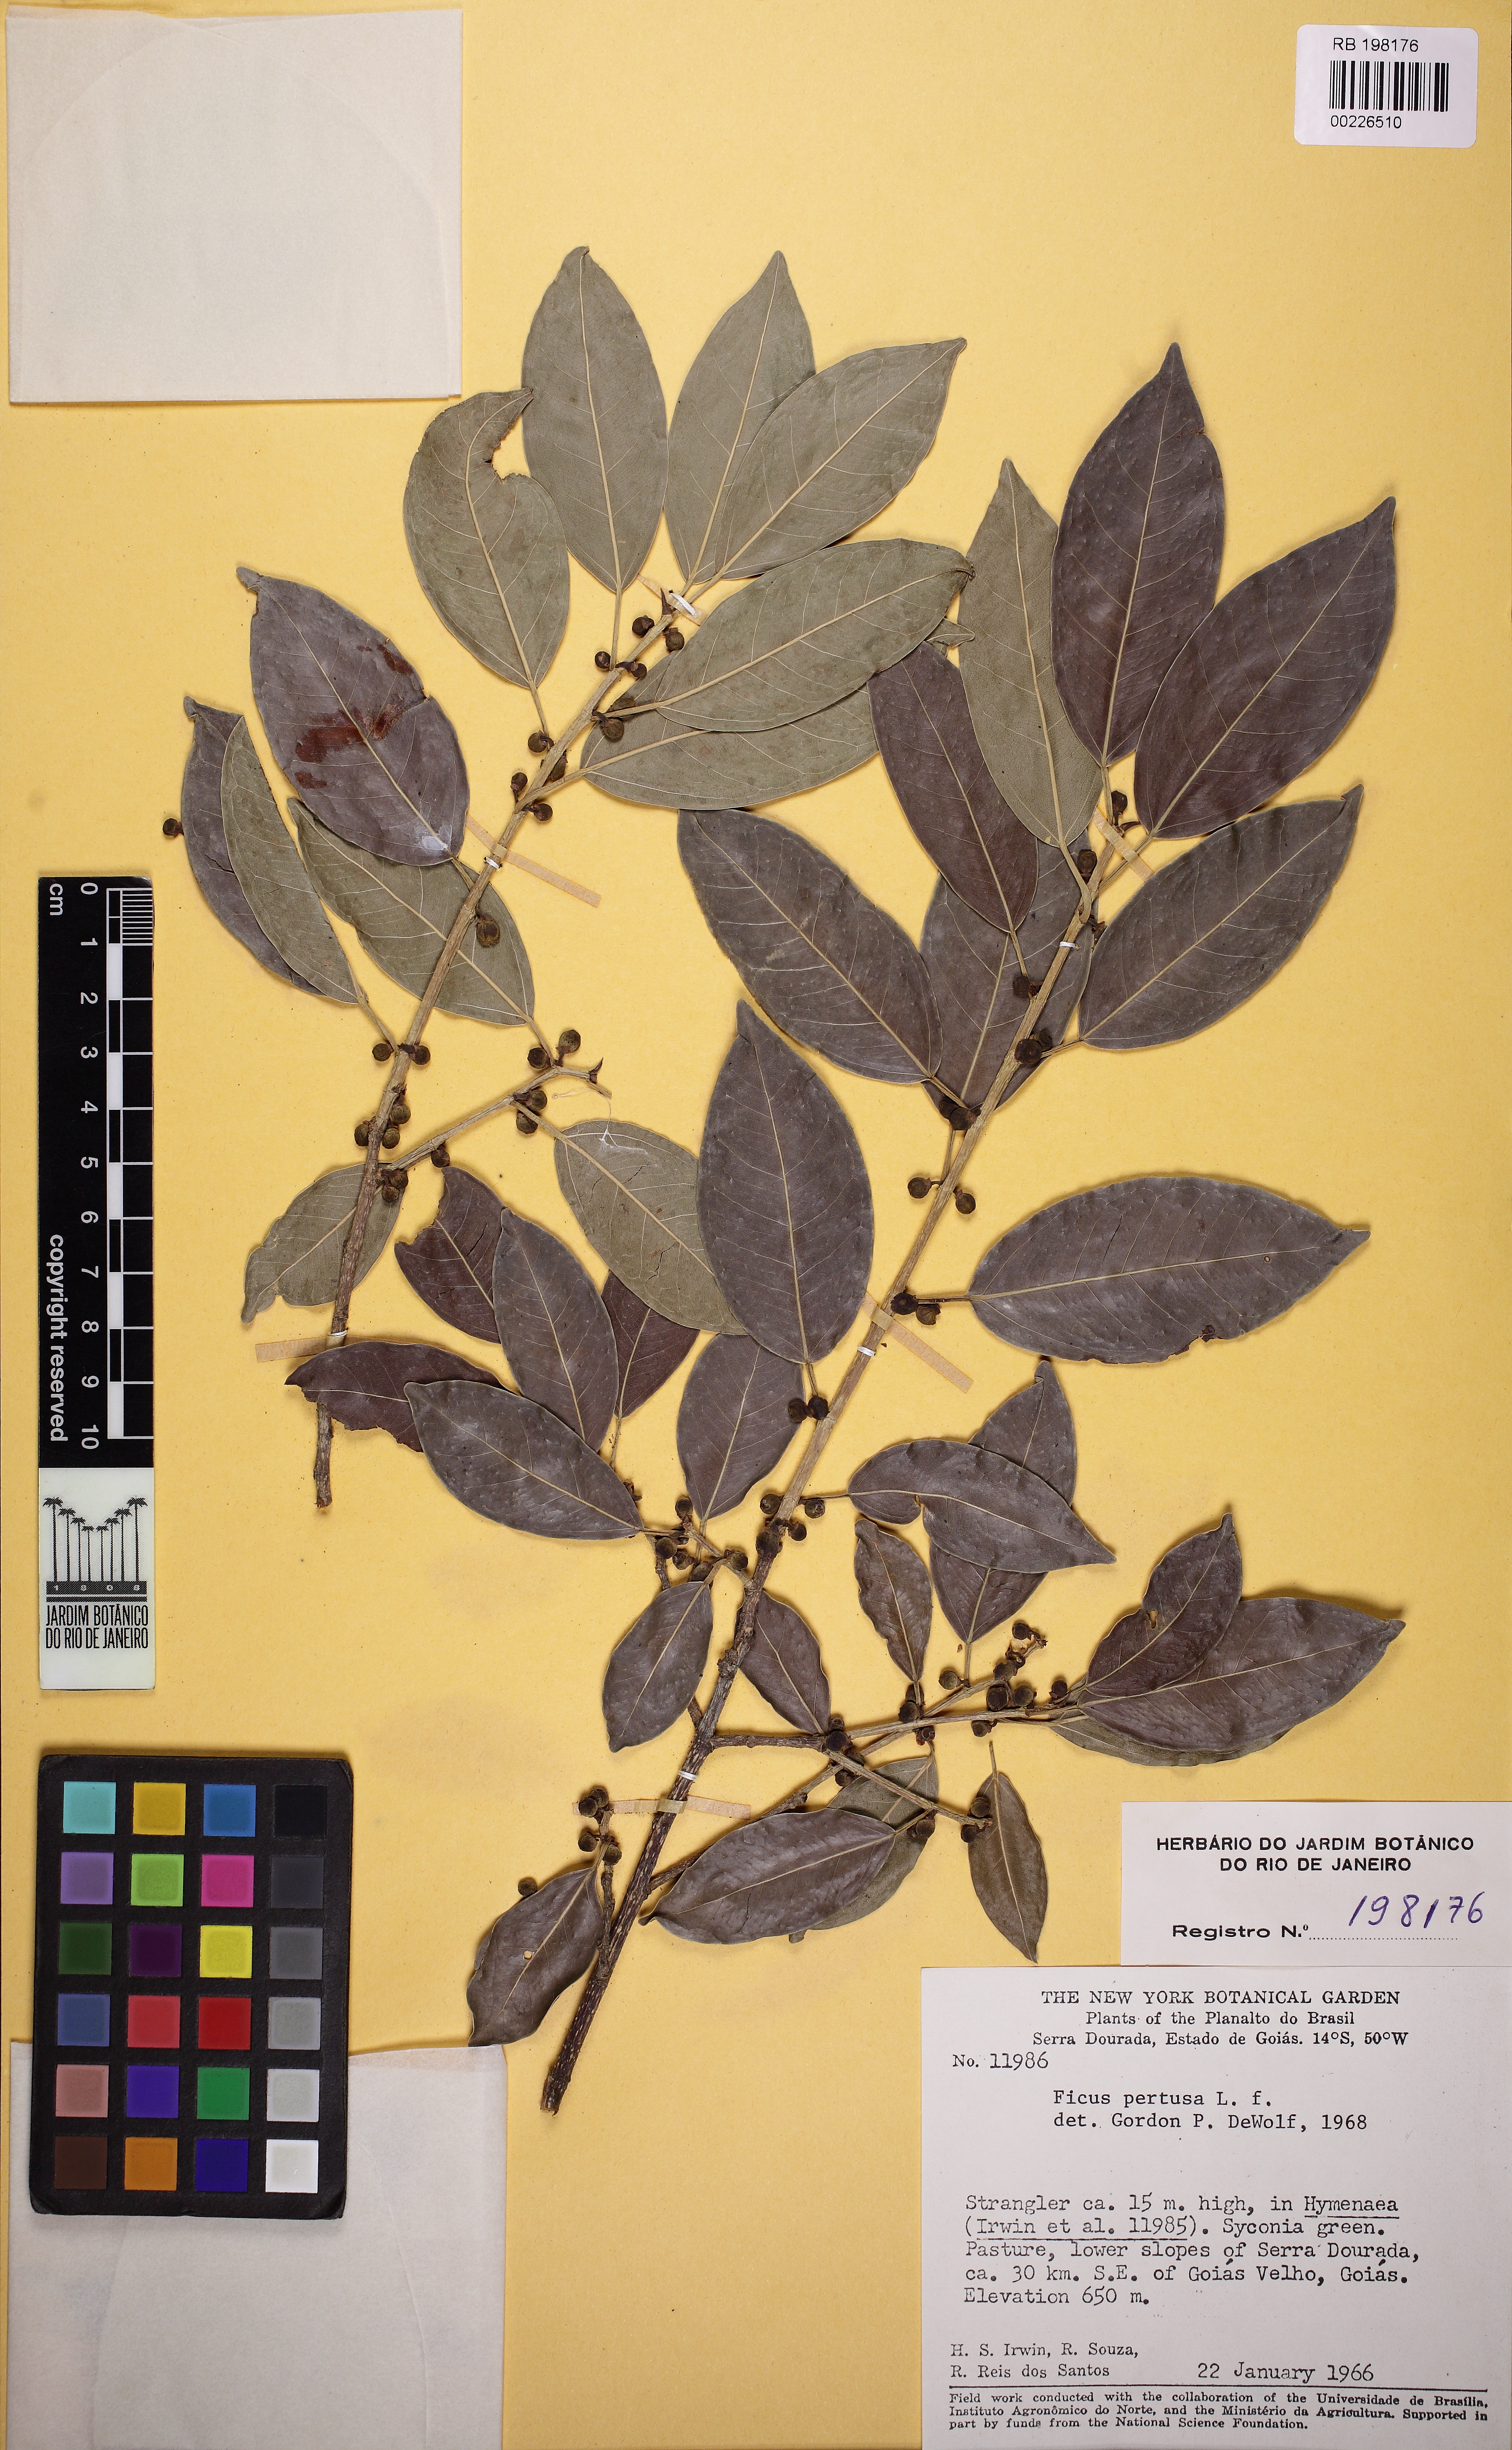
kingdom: Plantae
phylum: Tracheophyta
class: Magnoliopsida
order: Rosales
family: Moraceae
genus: Ficus
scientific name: Ficus pertusa
